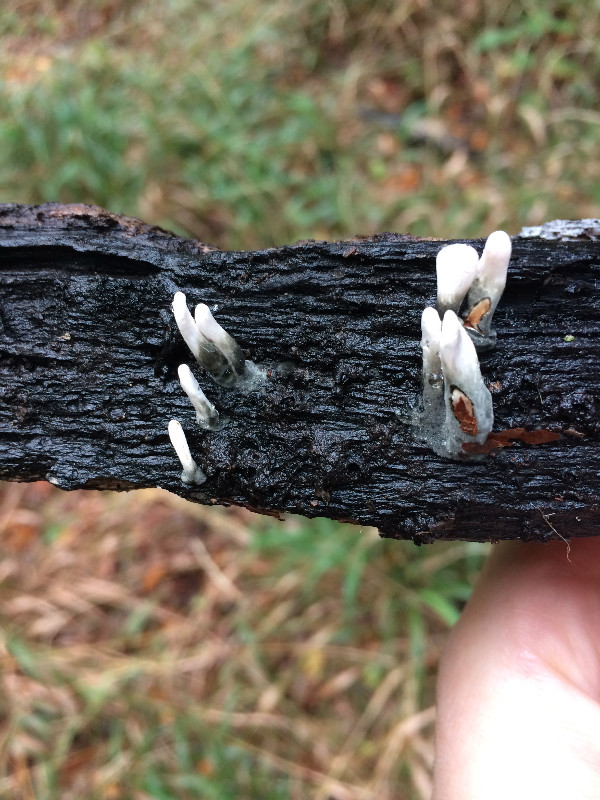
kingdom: Fungi
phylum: Ascomycota
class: Sordariomycetes
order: Xylariales
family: Xylariaceae
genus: Xylaria
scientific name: Xylaria hypoxylon
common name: grenet stødsvamp
